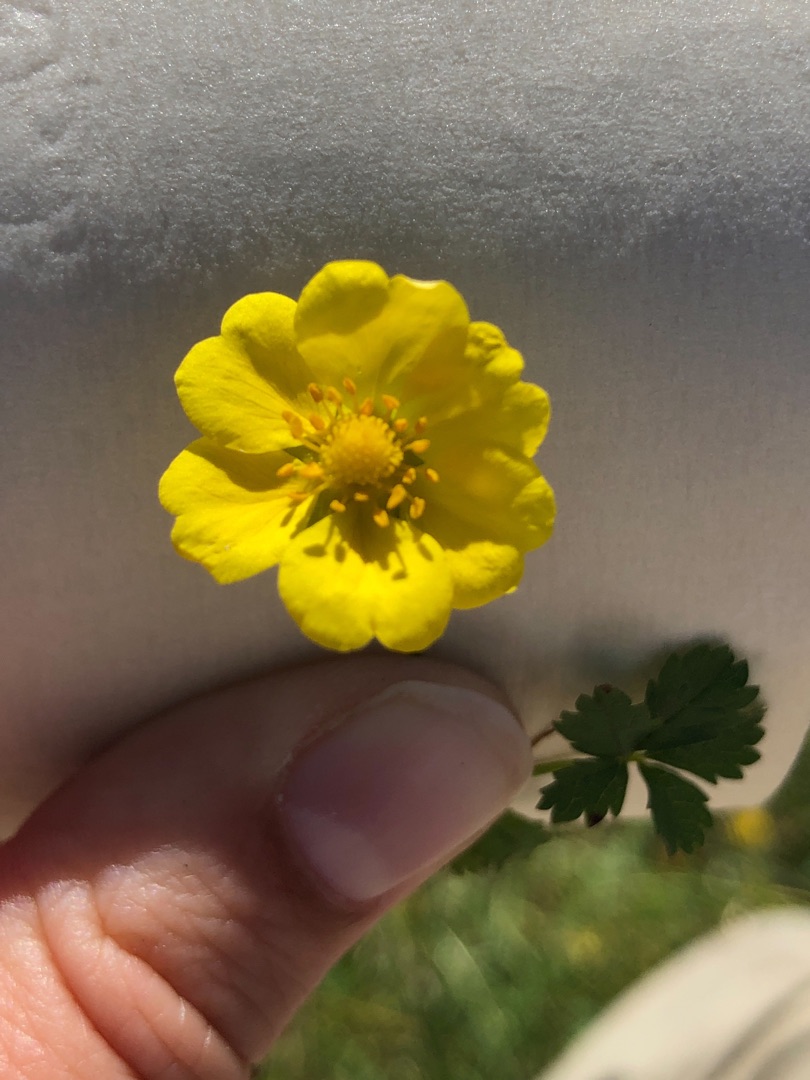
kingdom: Plantae
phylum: Tracheophyta
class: Magnoliopsida
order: Rosales
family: Rosaceae
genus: Potentilla
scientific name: Potentilla reptans
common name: Krybende potentil
